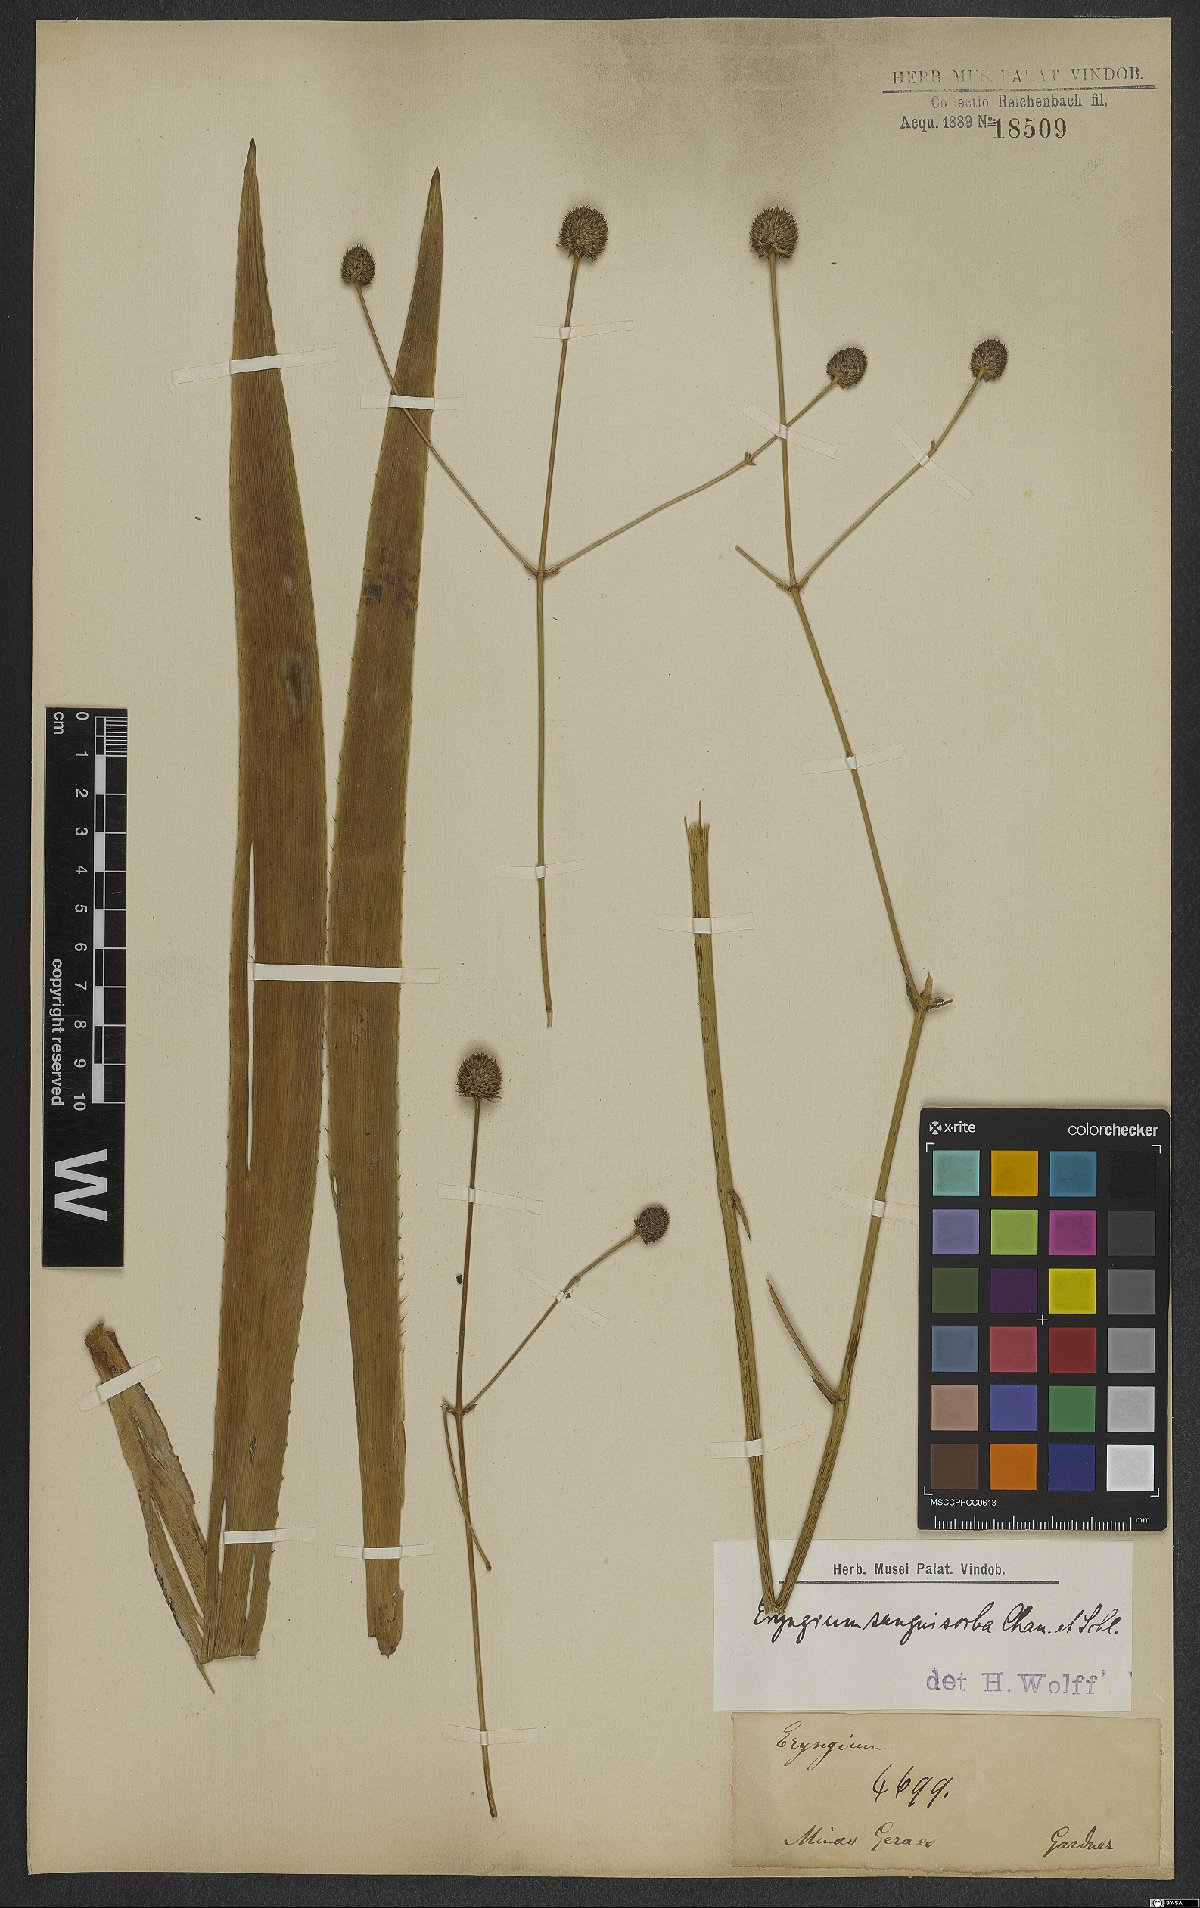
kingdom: Plantae
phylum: Tracheophyta
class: Magnoliopsida
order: Apiales
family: Apiaceae
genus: Eryngium
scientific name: Eryngium sanguisorba
